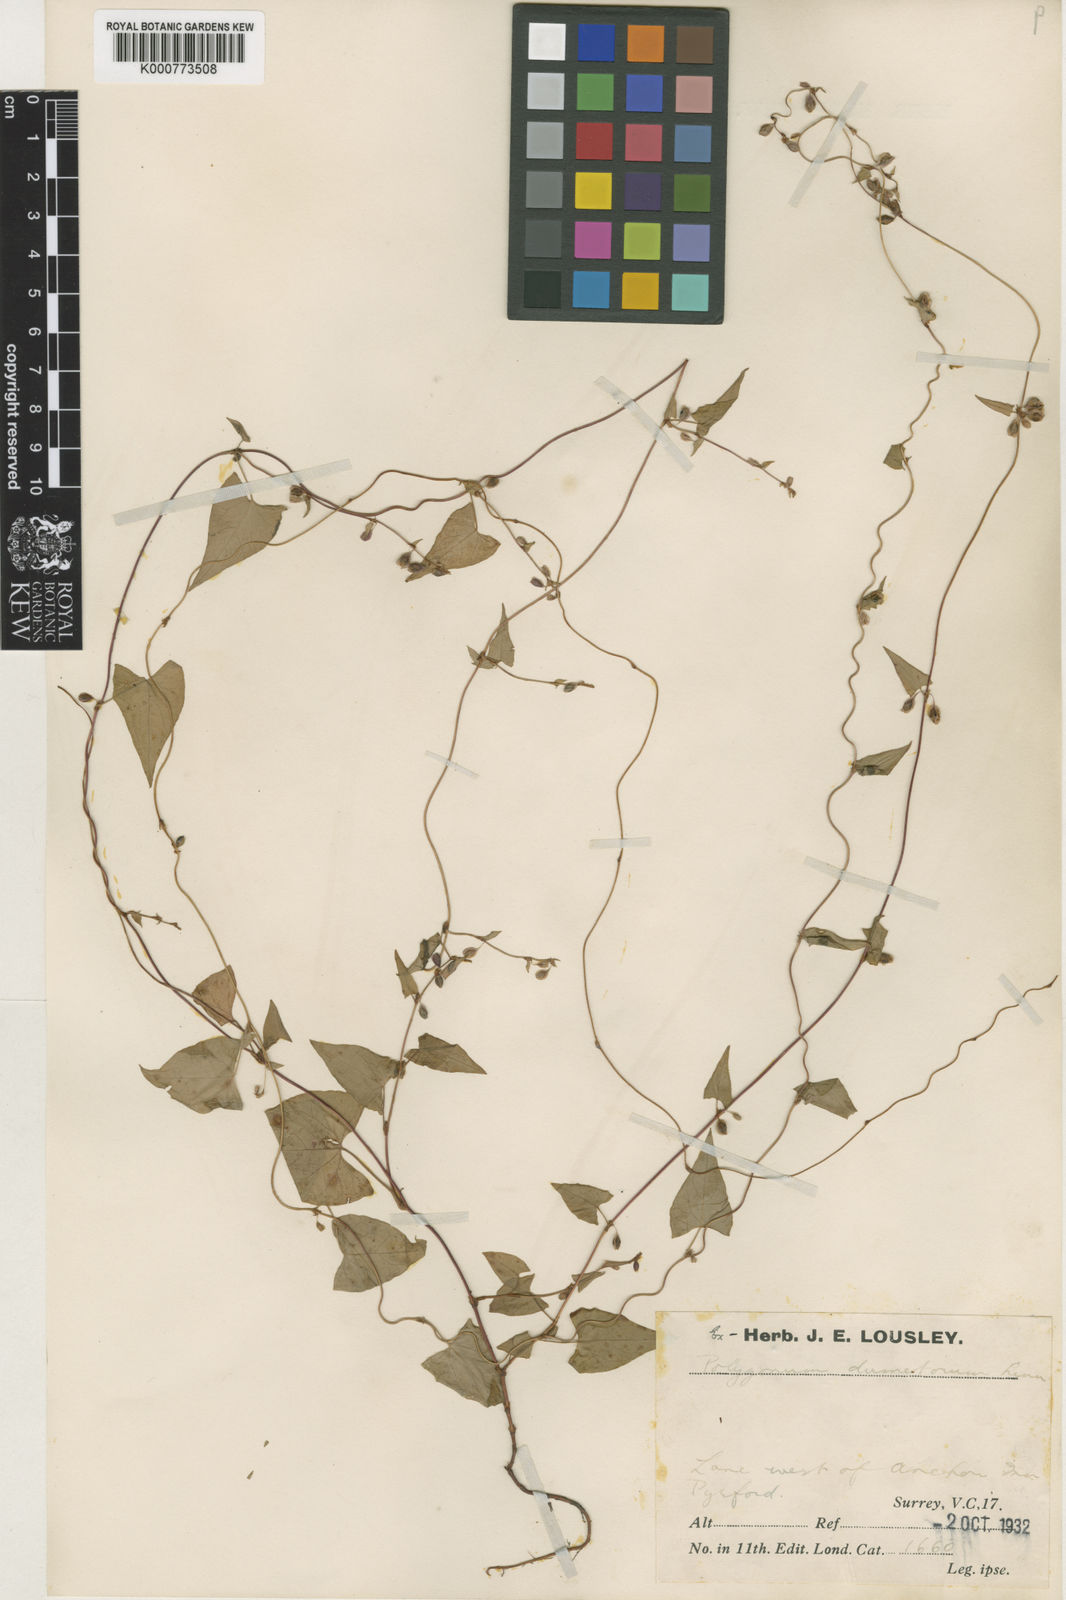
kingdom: Plantae
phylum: Tracheophyta
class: Magnoliopsida
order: Caryophyllales
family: Polygonaceae
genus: Fallopia
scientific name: Fallopia dumetorum
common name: Copse-bindweed
